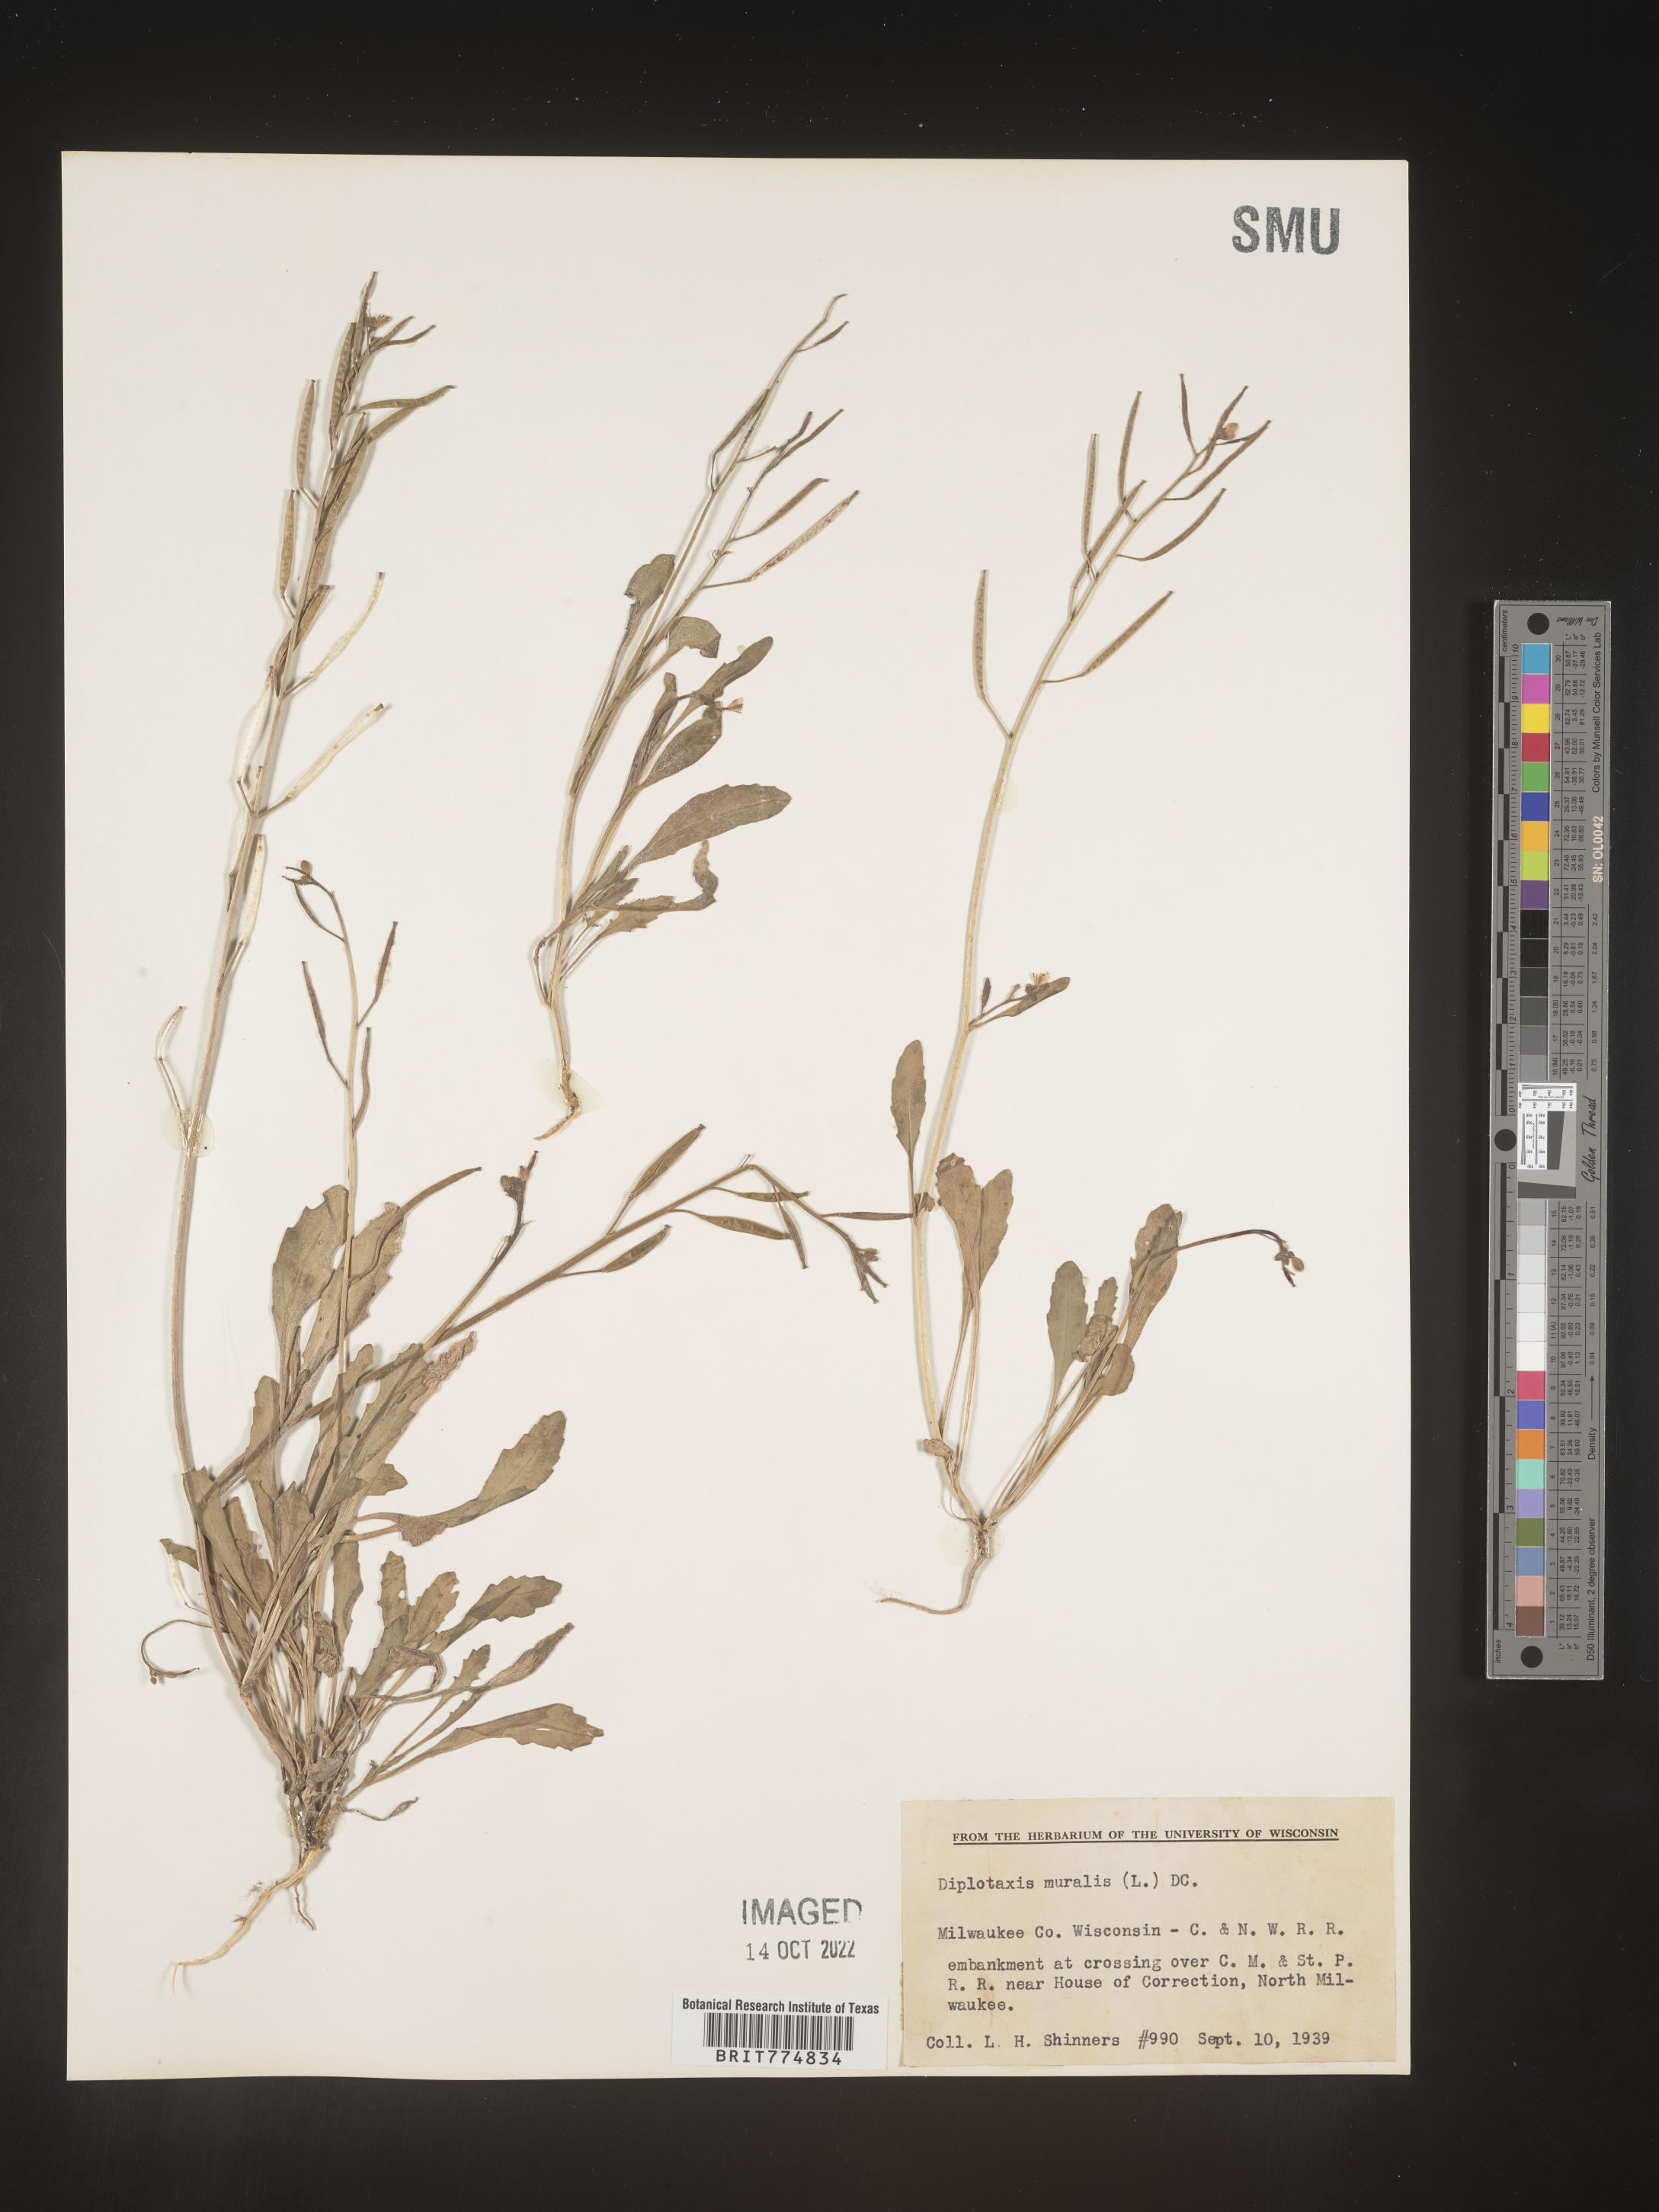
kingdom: Plantae
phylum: Tracheophyta
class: Magnoliopsida
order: Brassicales
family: Brassicaceae
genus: Diplotaxis
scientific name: Diplotaxis
